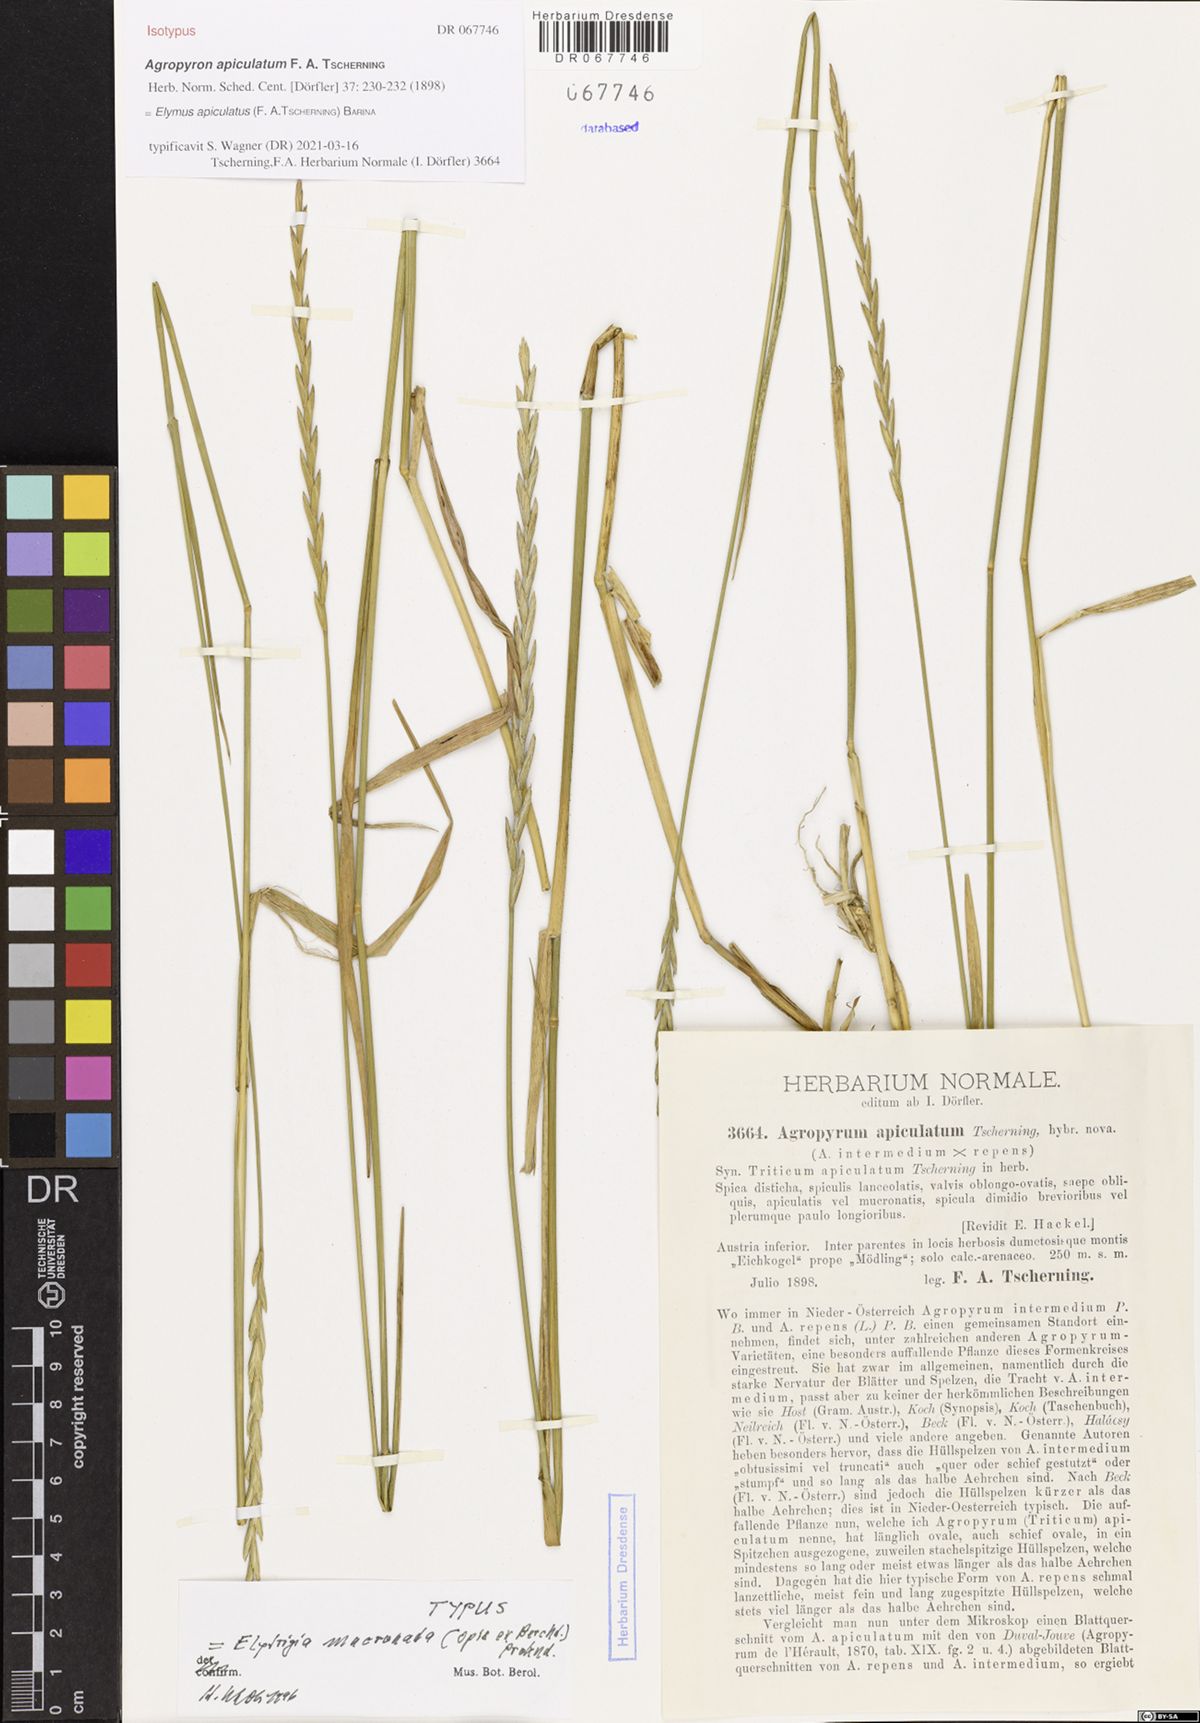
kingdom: Plantae
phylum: Tracheophyta
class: Liliopsida
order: Poales
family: Poaceae
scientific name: Poaceae
